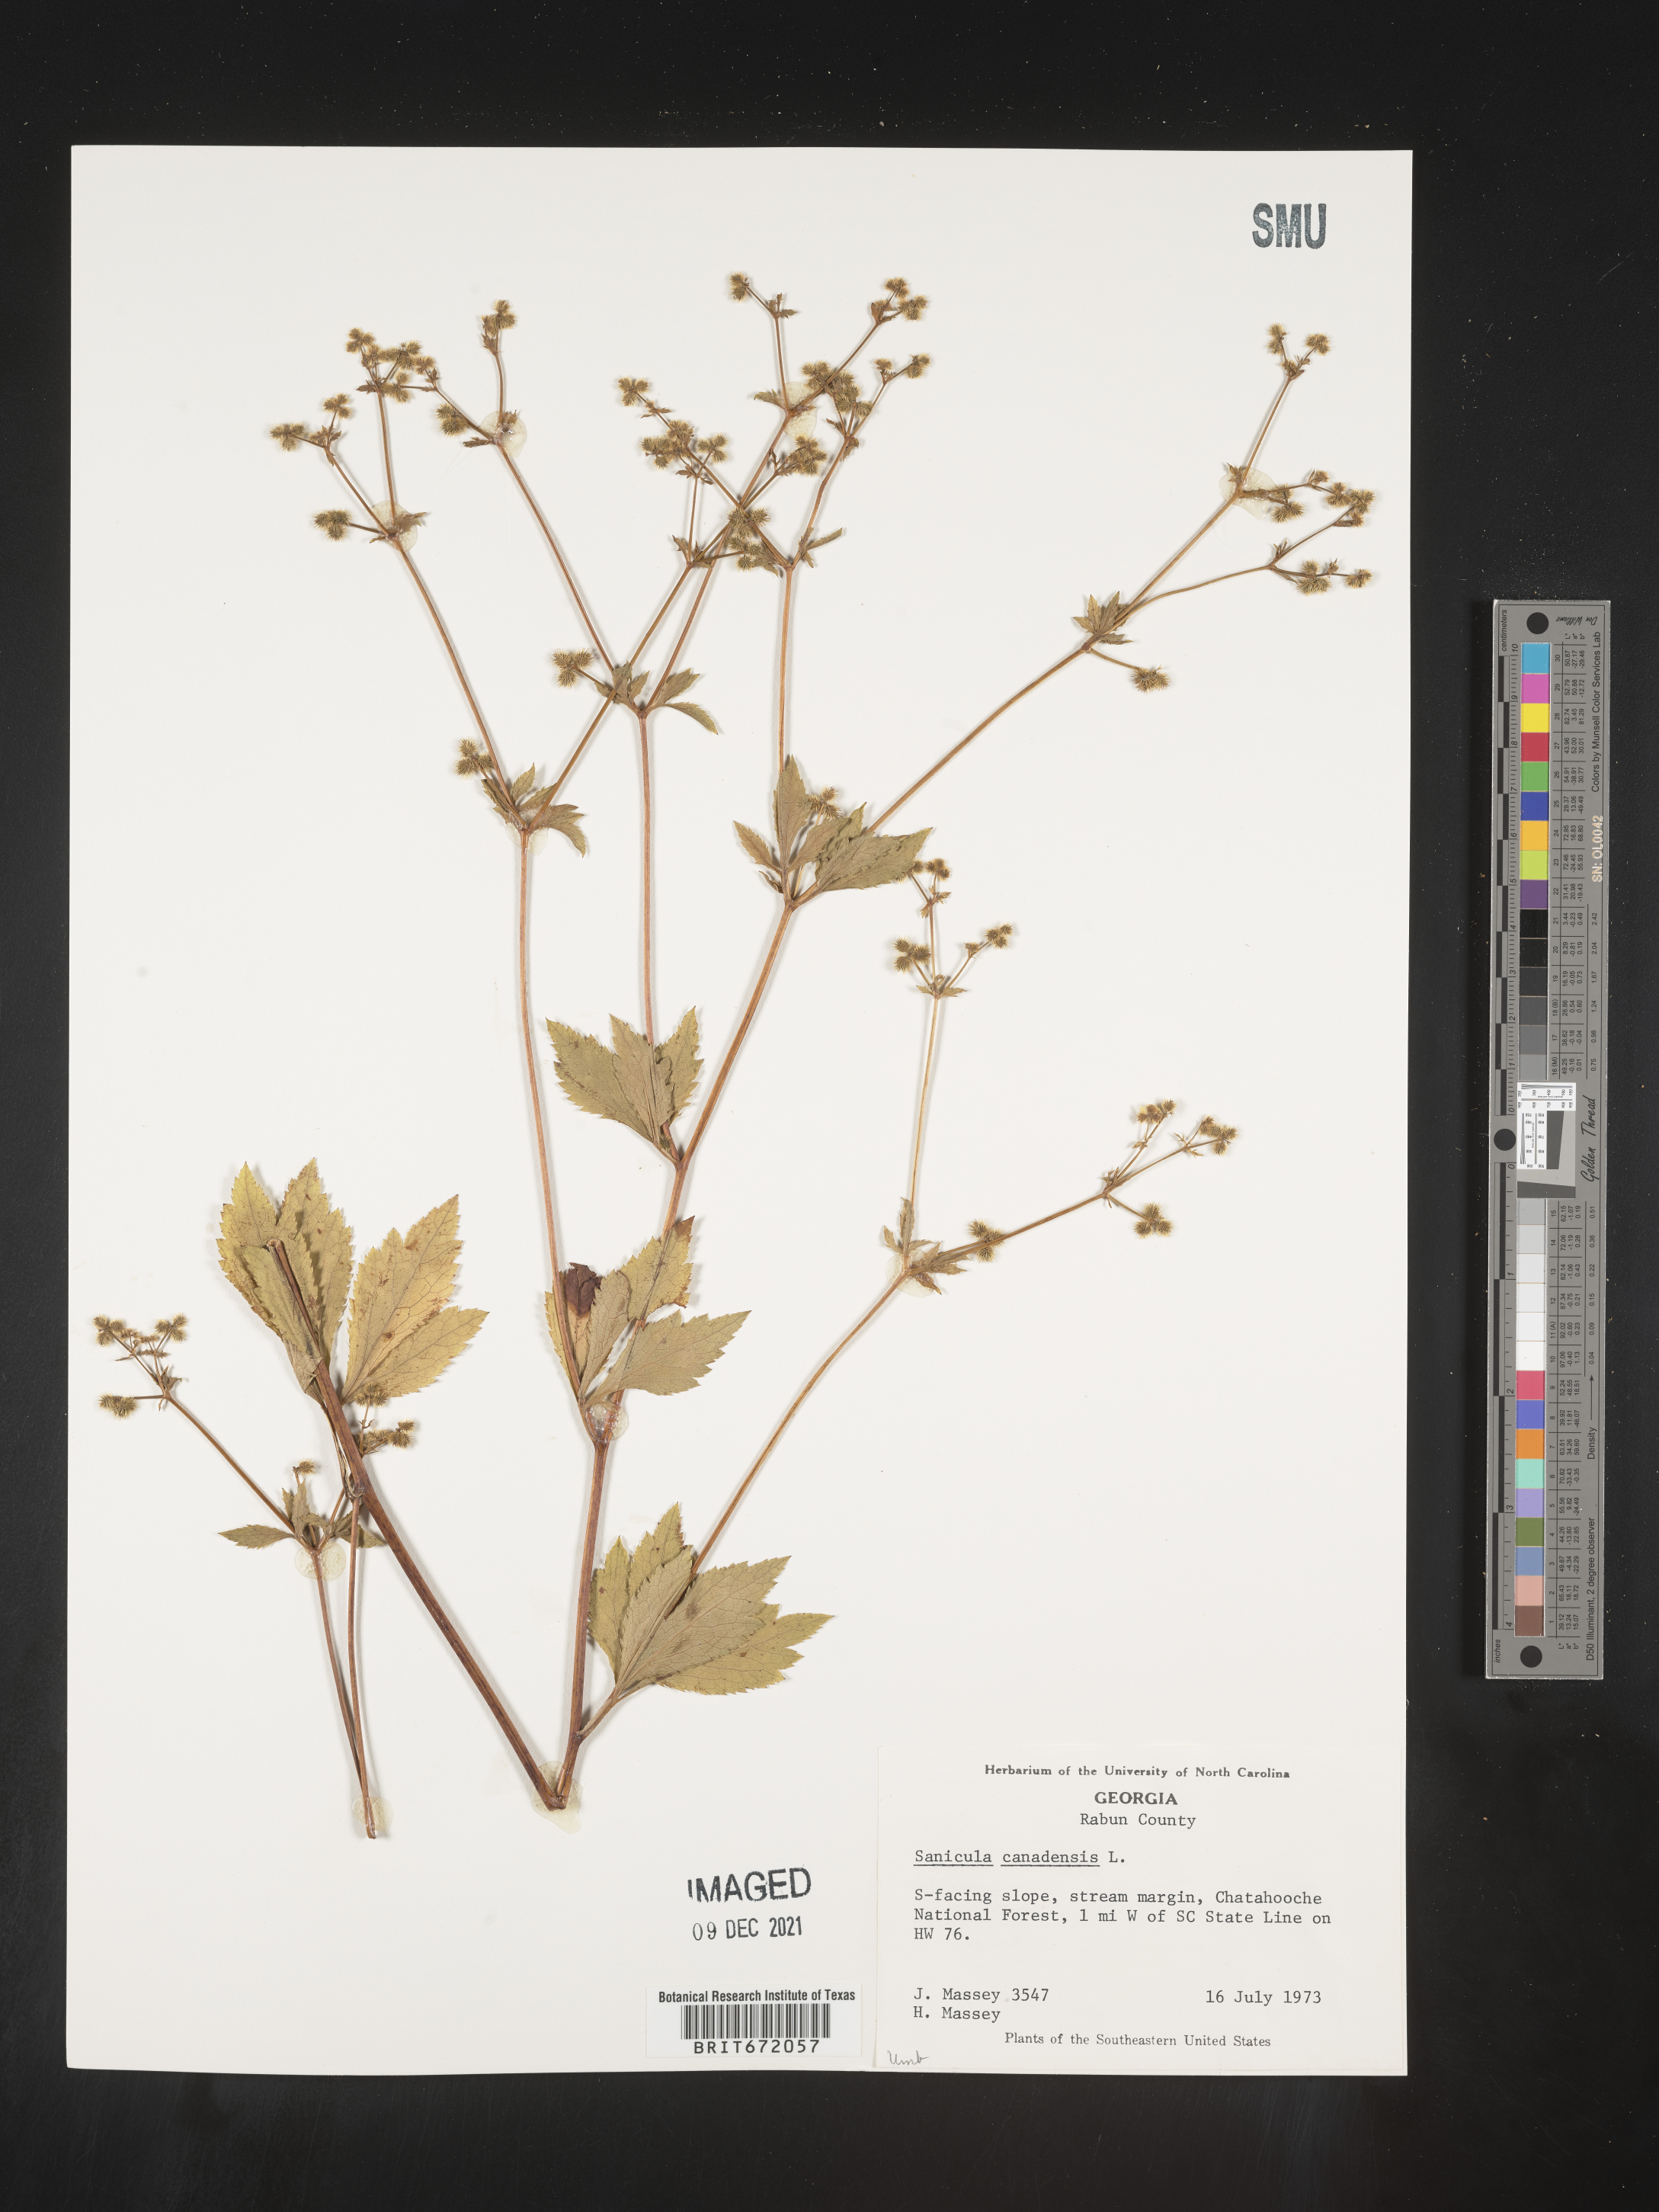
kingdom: Plantae
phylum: Tracheophyta
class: Magnoliopsida
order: Apiales
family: Apiaceae
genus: Sanicula
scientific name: Sanicula canadensis
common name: Canada sanicle
